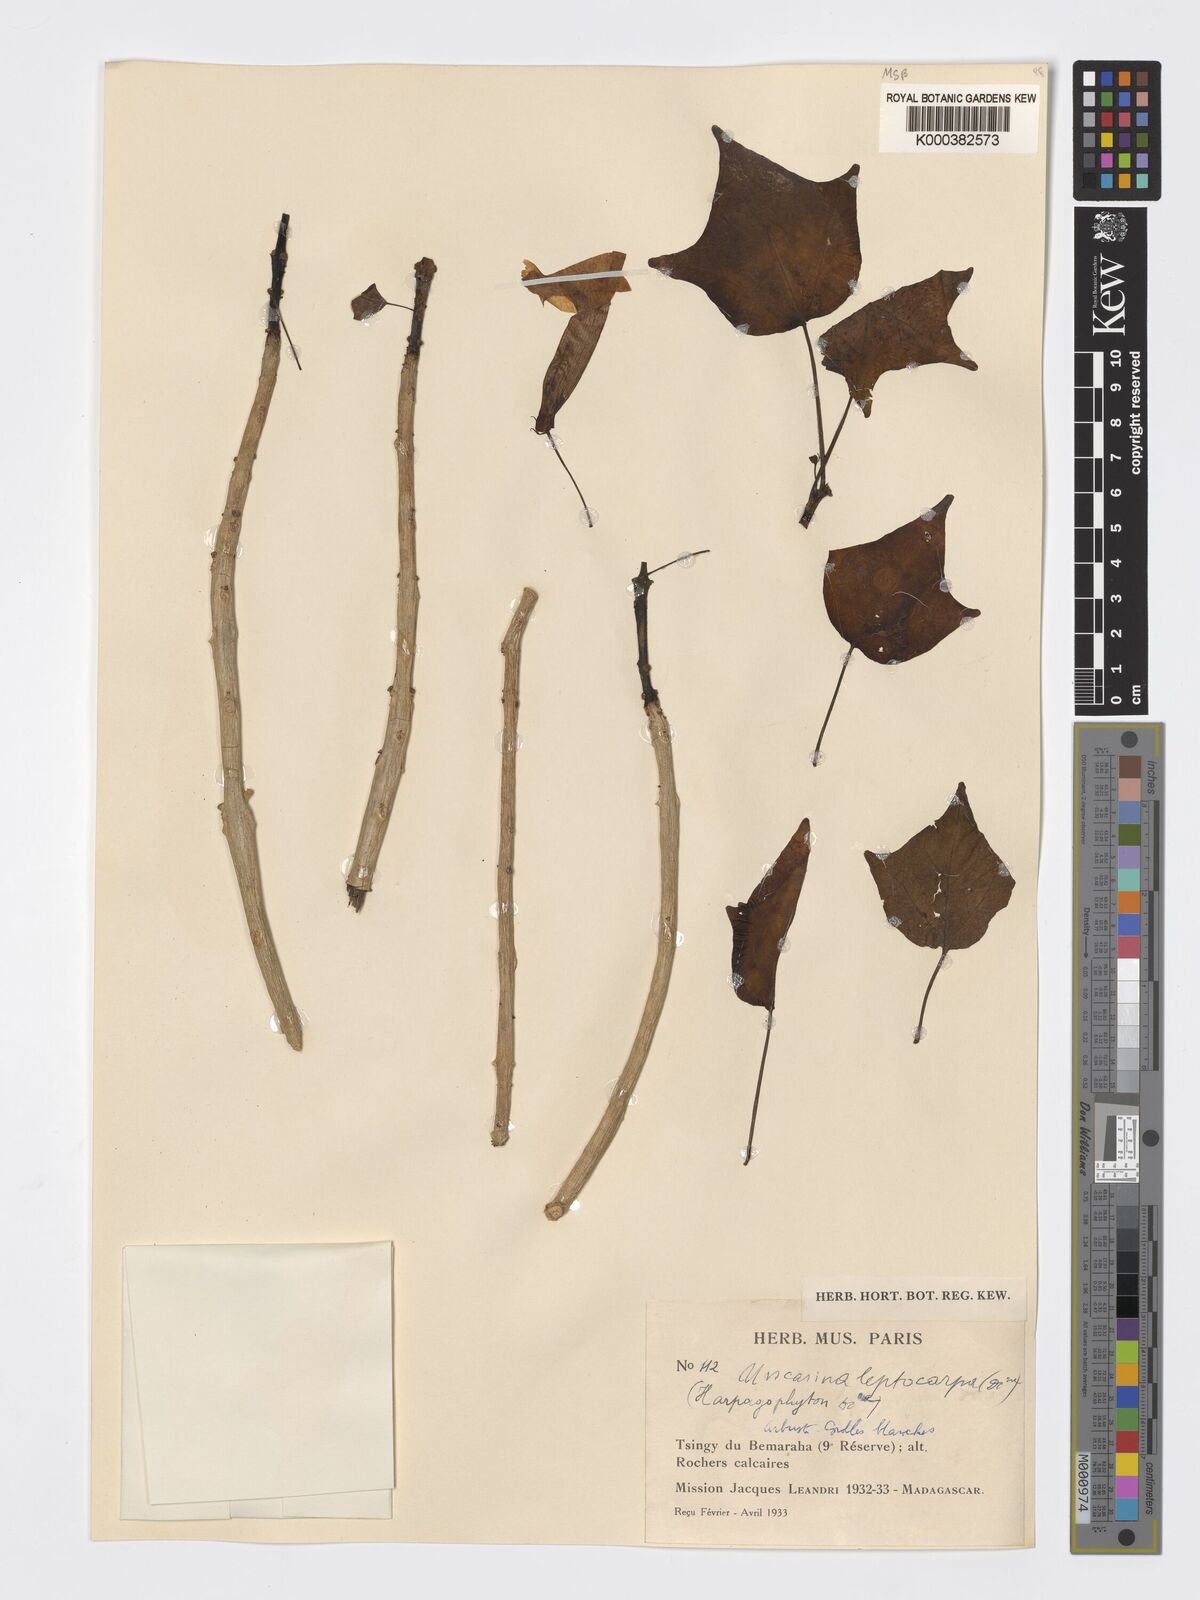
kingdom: Plantae
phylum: Tracheophyta
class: Magnoliopsida
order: Lamiales
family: Pedaliaceae
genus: Uncarina
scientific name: Uncarina leptocarpa
